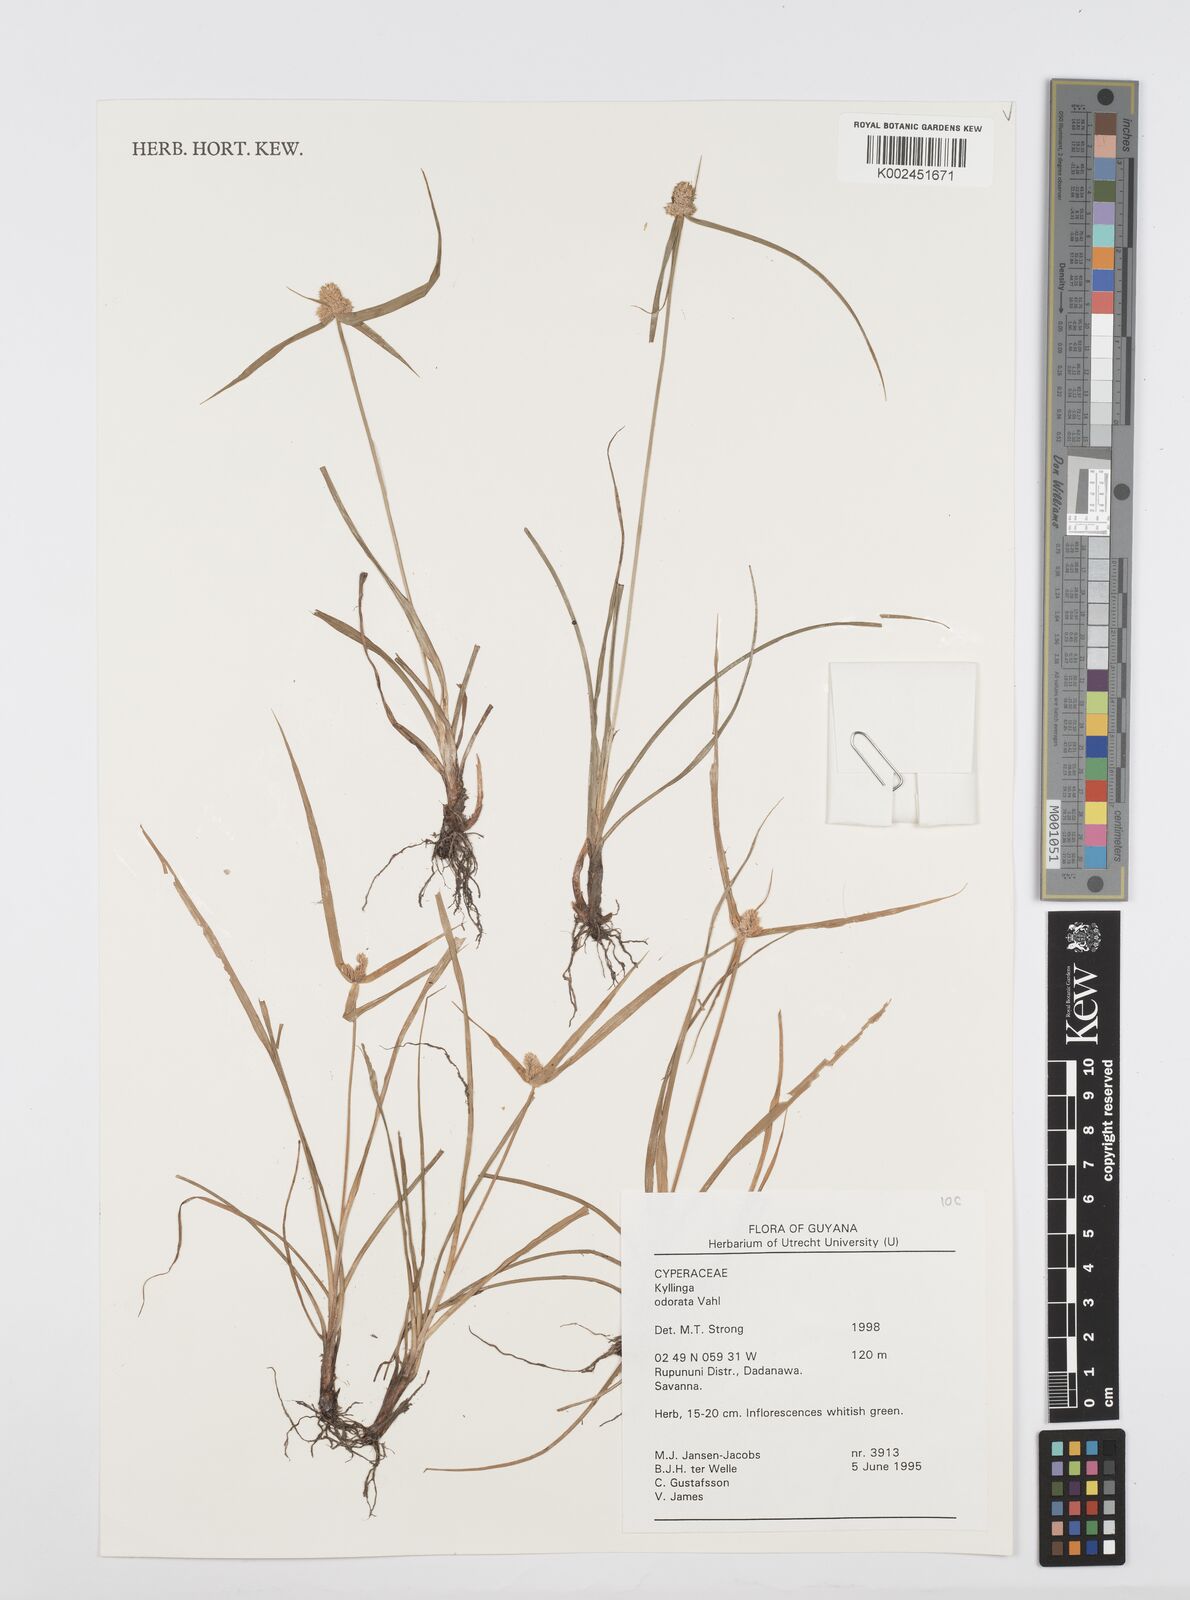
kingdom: Plantae
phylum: Tracheophyta
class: Liliopsida
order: Poales
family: Cyperaceae
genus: Cyperus
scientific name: Cyperus
